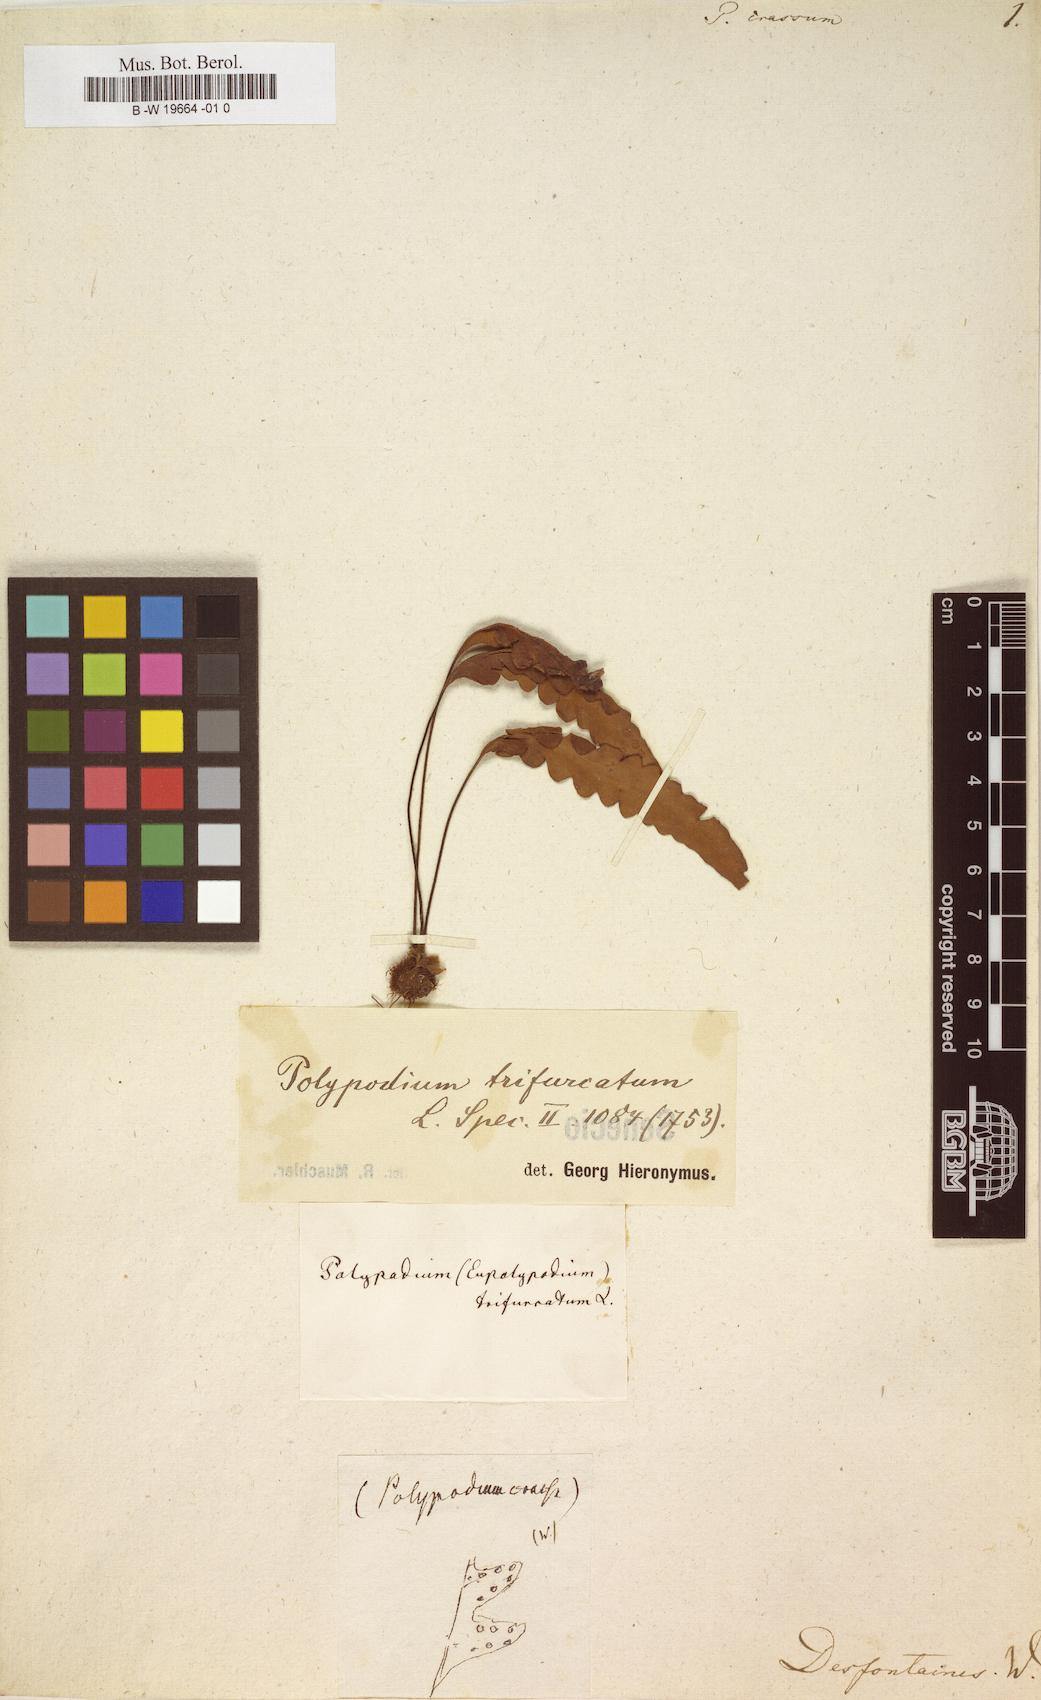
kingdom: Plantae
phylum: Tracheophyta
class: Polypodiopsida
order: Polypodiales
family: Polypodiaceae
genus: Notogrammitis
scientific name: Notogrammitis crassior
